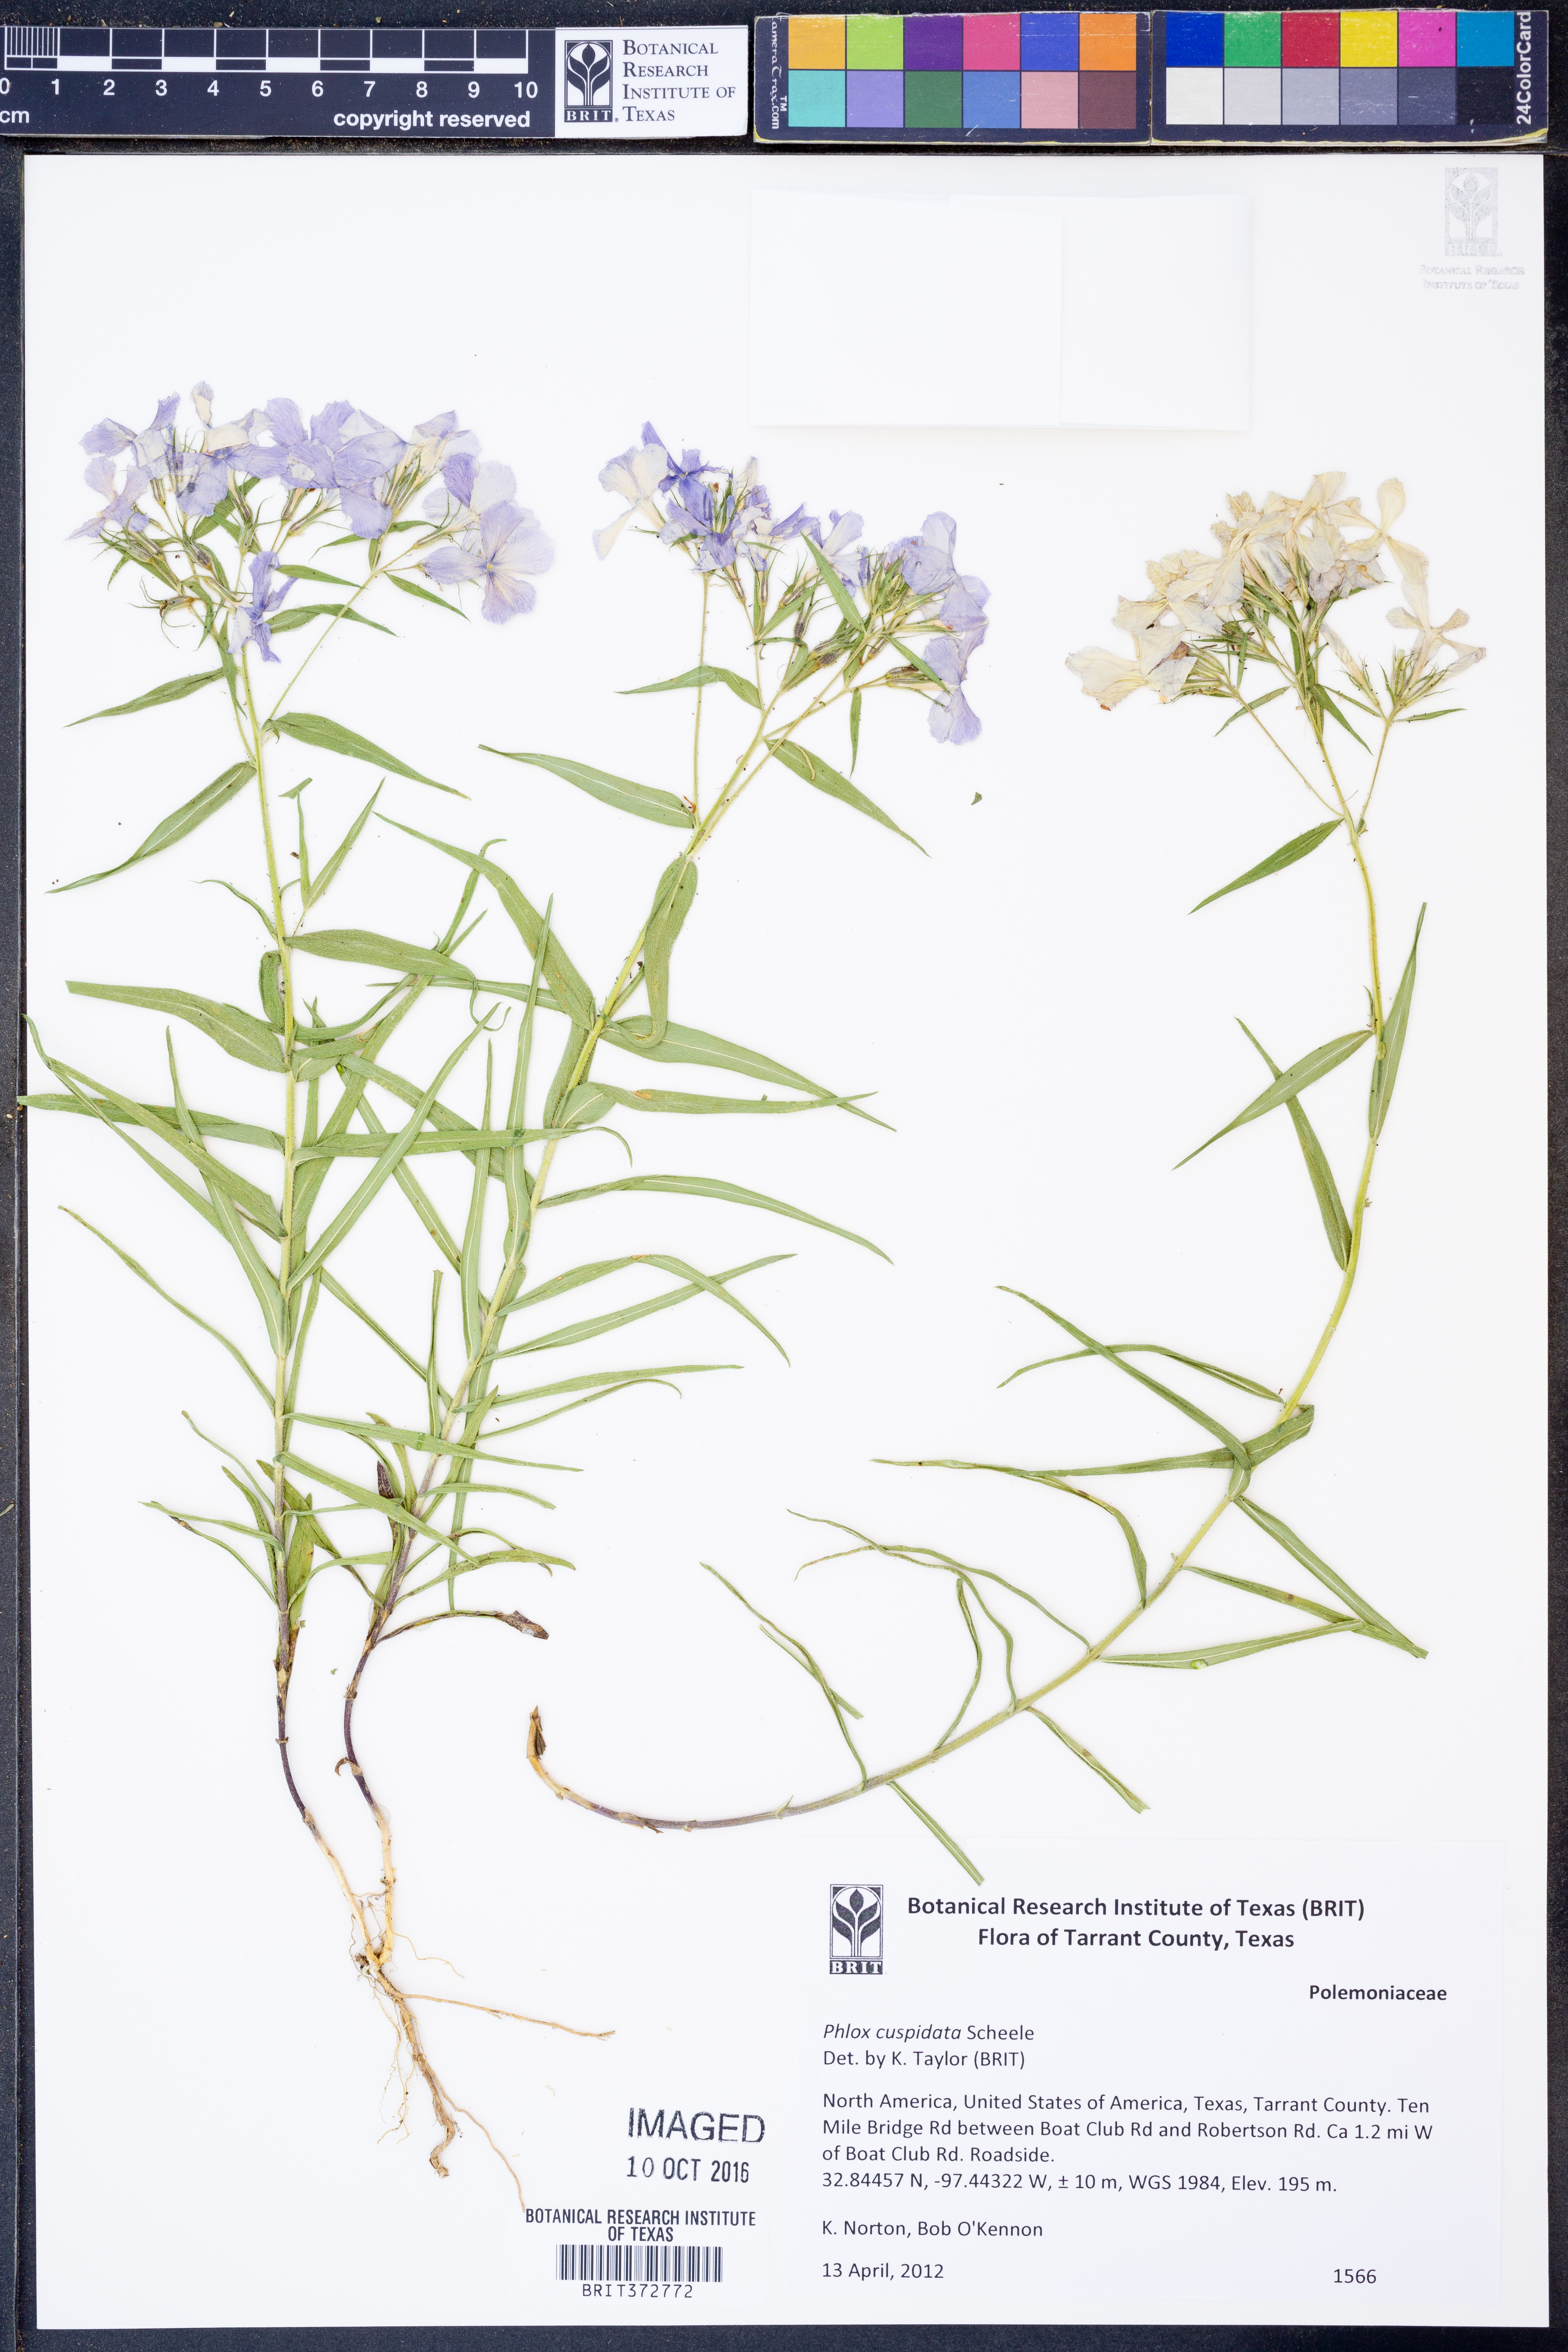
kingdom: Plantae
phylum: Tracheophyta
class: Magnoliopsida
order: Ericales
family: Polemoniaceae
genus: Phlox
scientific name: Phlox cuspidata
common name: Pointed phlox
